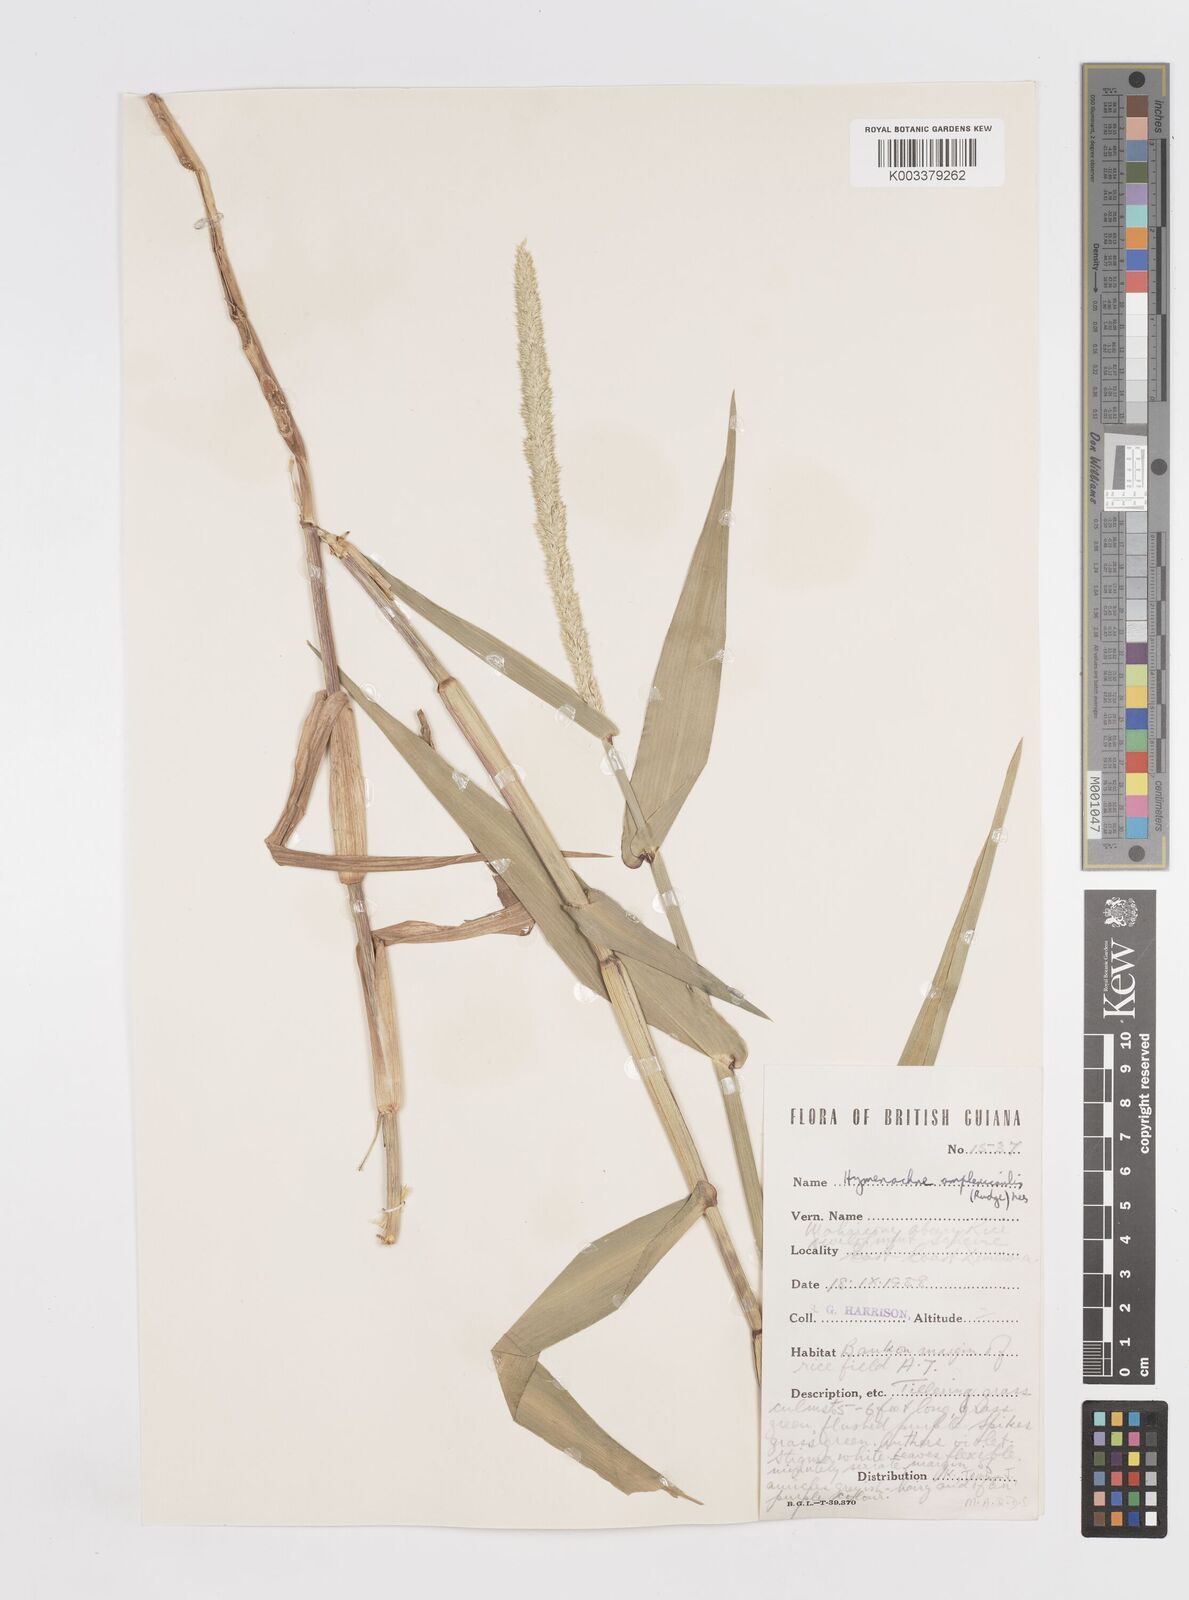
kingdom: Plantae
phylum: Tracheophyta
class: Liliopsida
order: Poales
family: Poaceae
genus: Hymenachne
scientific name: Hymenachne amplexicaulis
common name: Olive hymenachne
